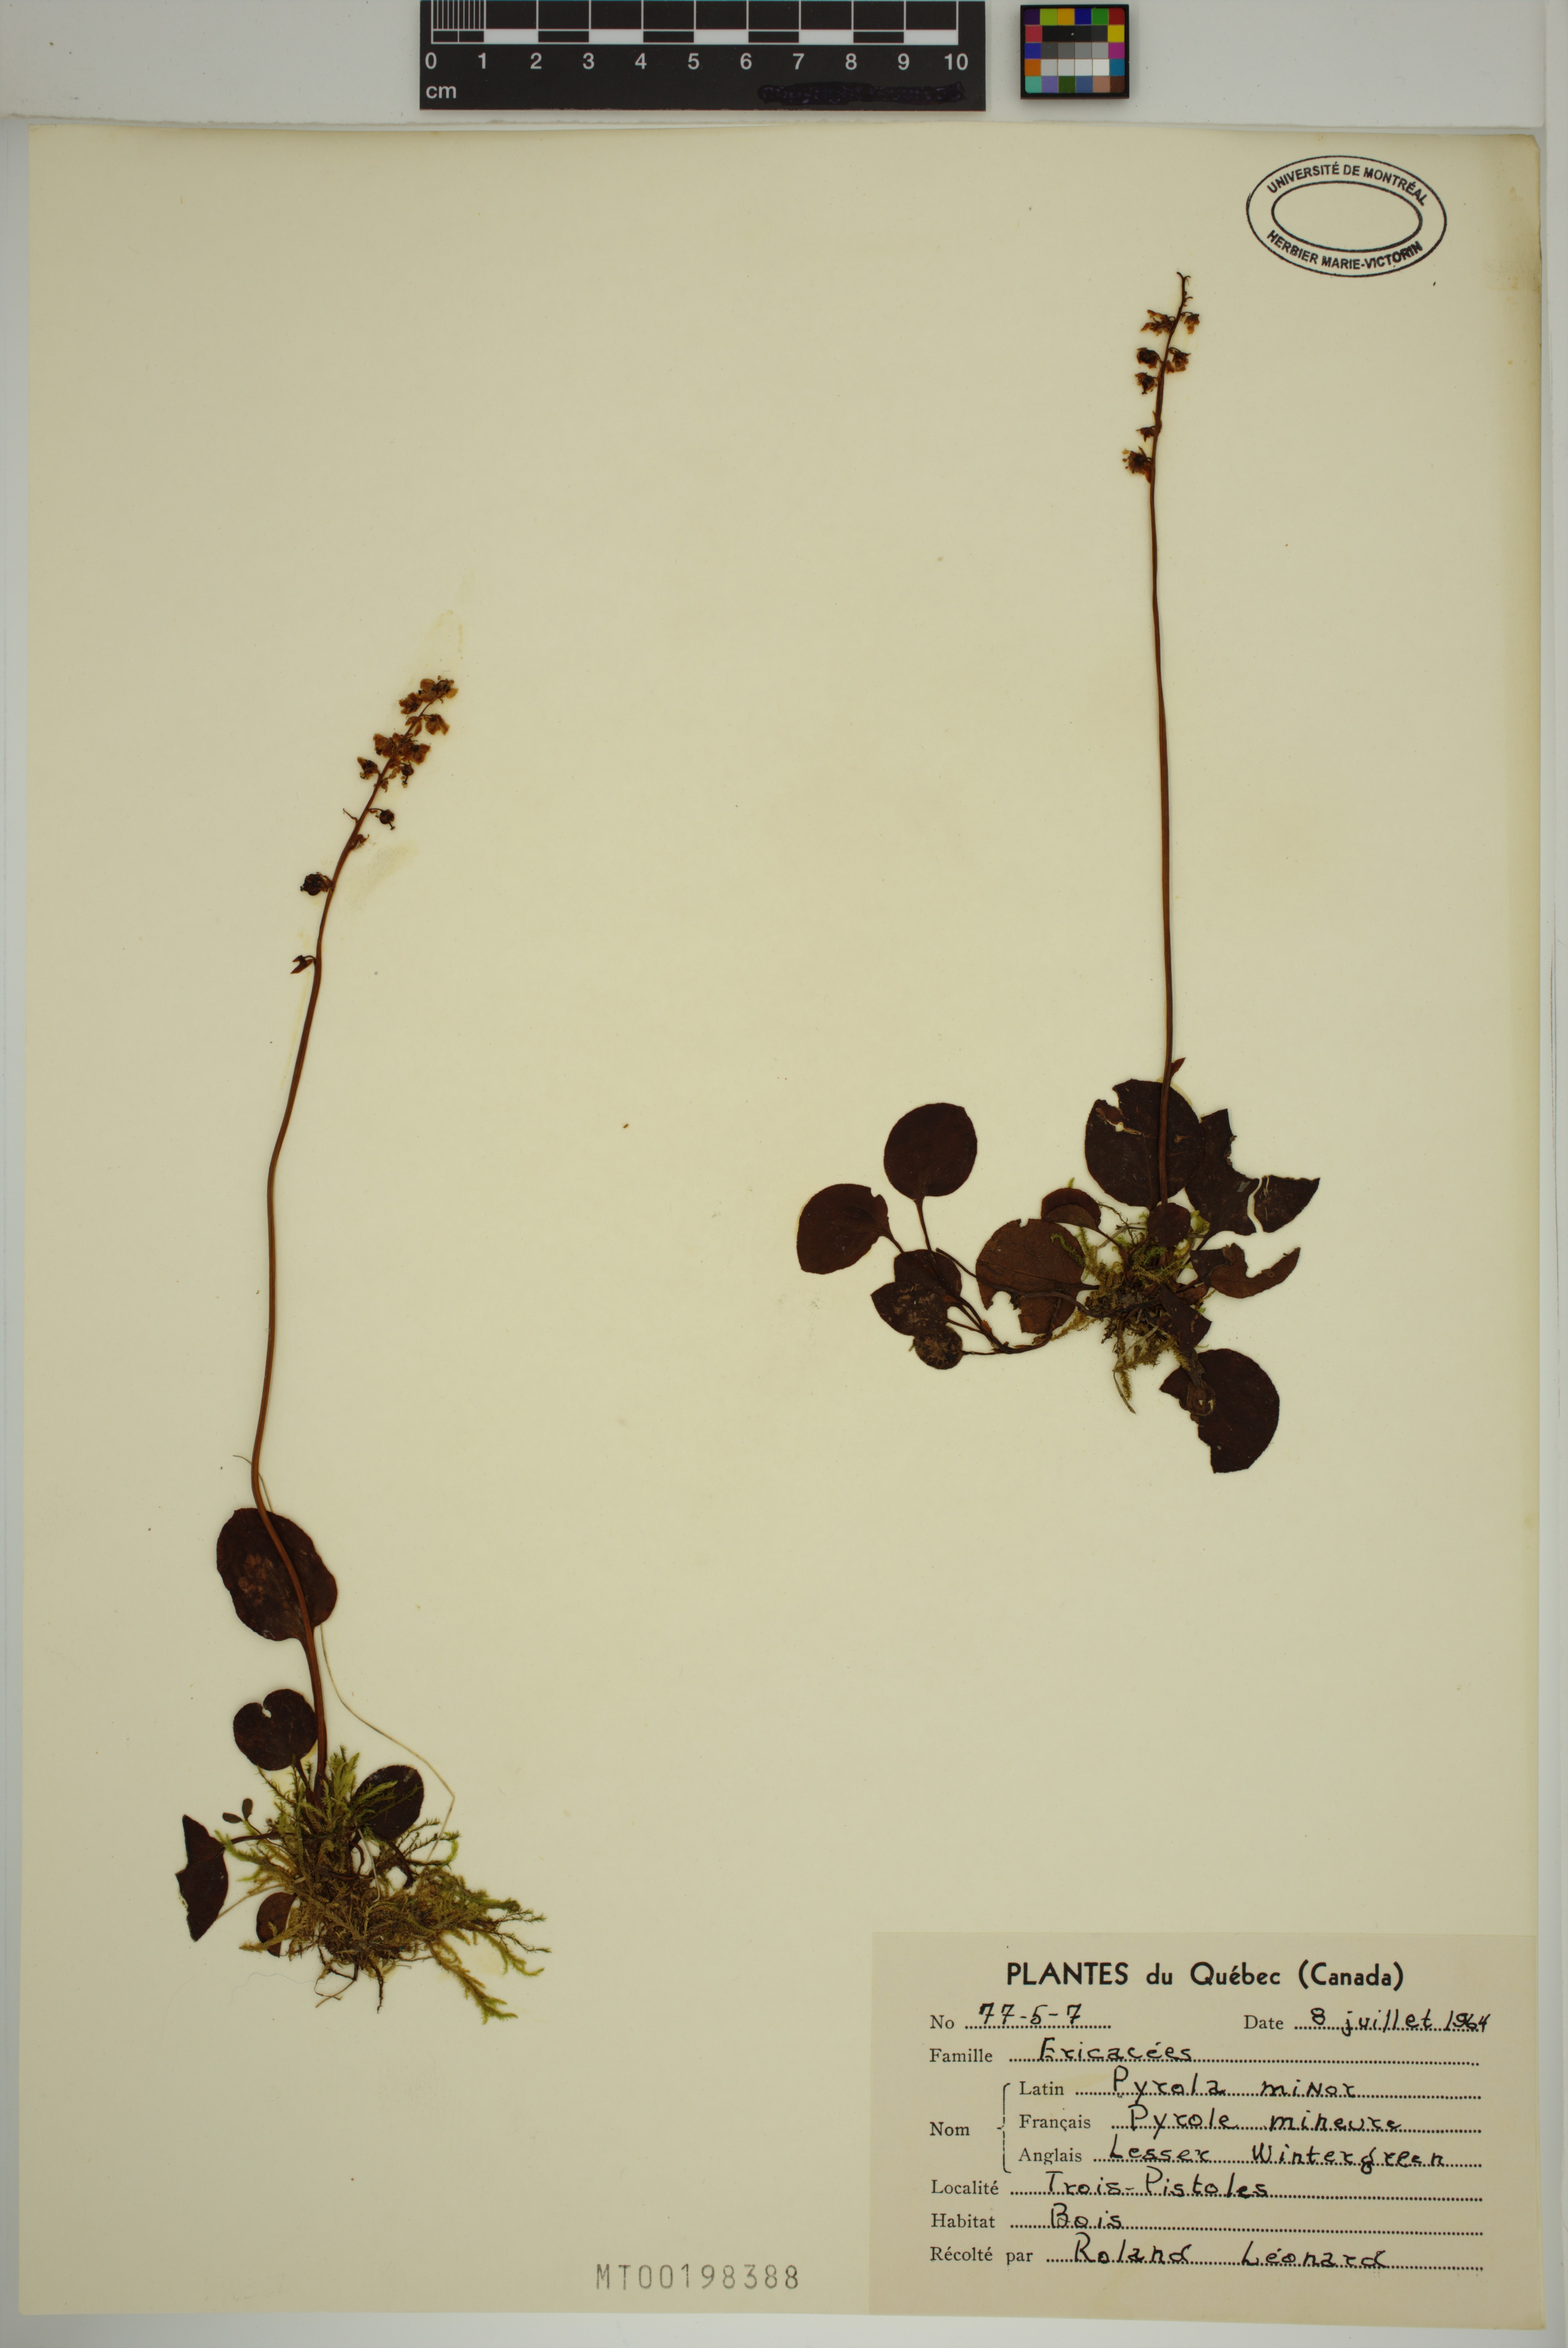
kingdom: Plantae
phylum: Tracheophyta
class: Magnoliopsida
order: Ericales
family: Ericaceae
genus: Pyrola
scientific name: Pyrola minor
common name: Common wintergreen
